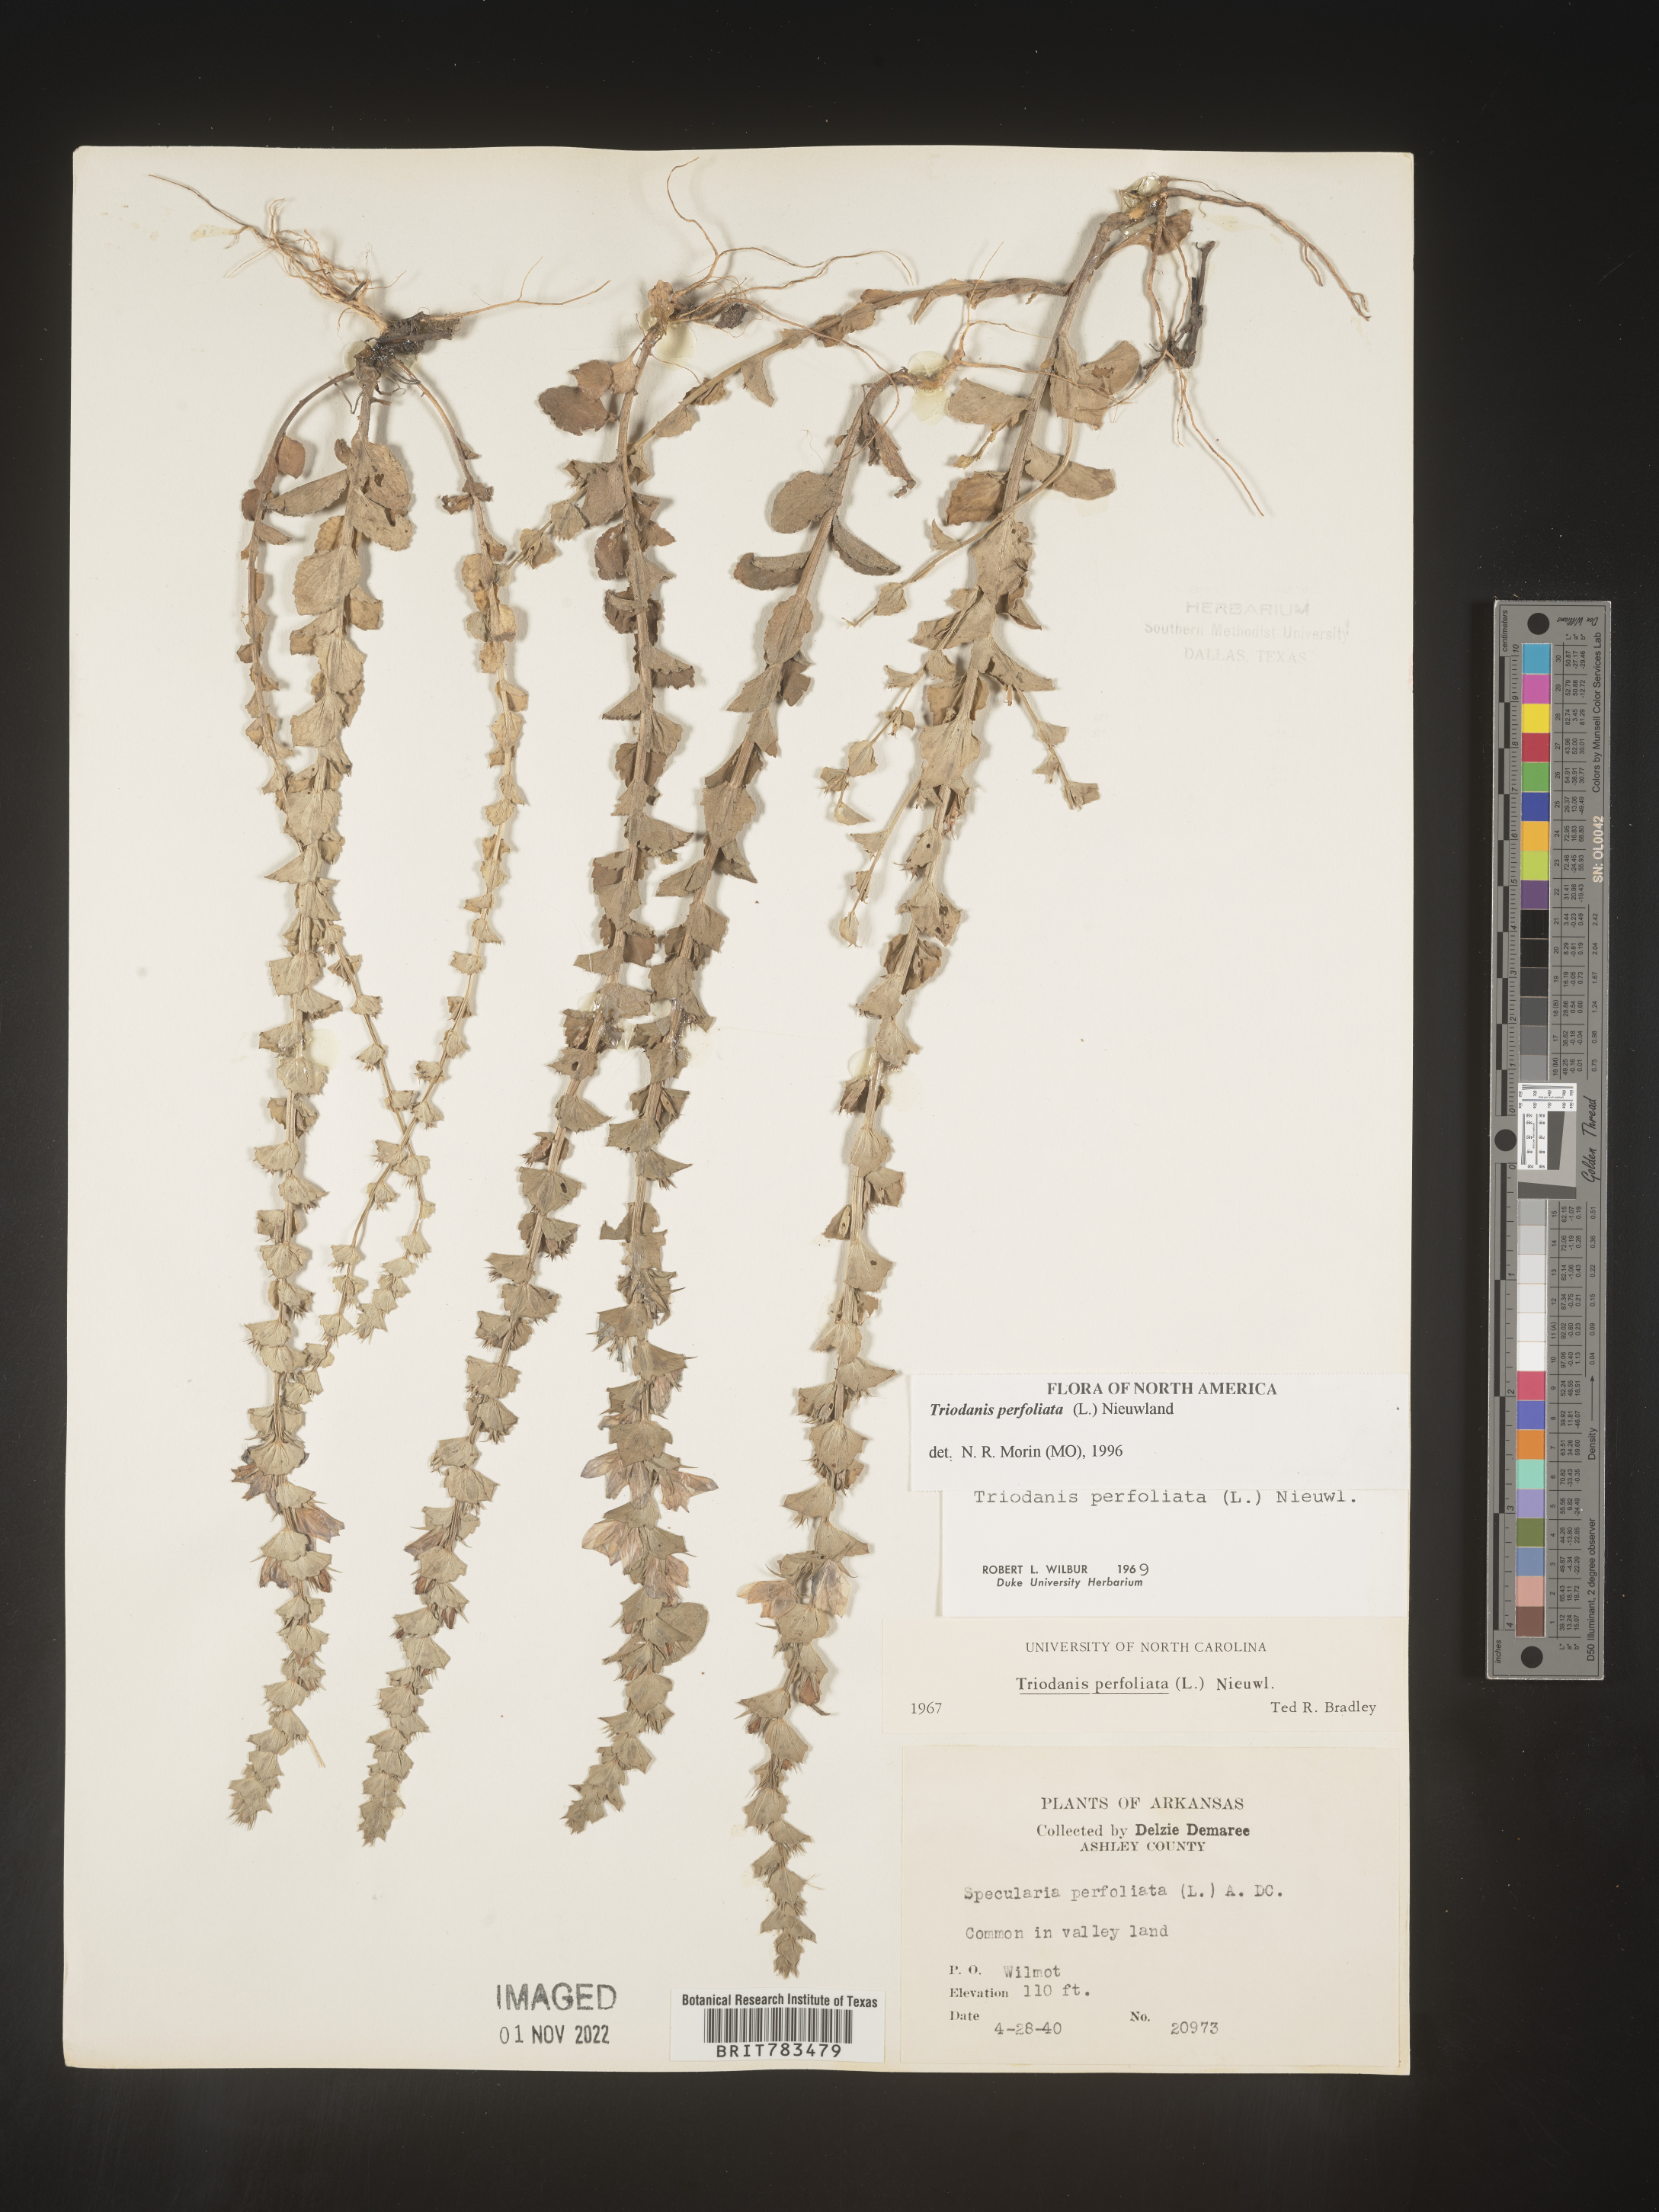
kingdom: Plantae
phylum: Tracheophyta
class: Magnoliopsida
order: Asterales
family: Campanulaceae
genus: Triodanis
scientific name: Triodanis perfoliata
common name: Clasping venus' looking-glass
